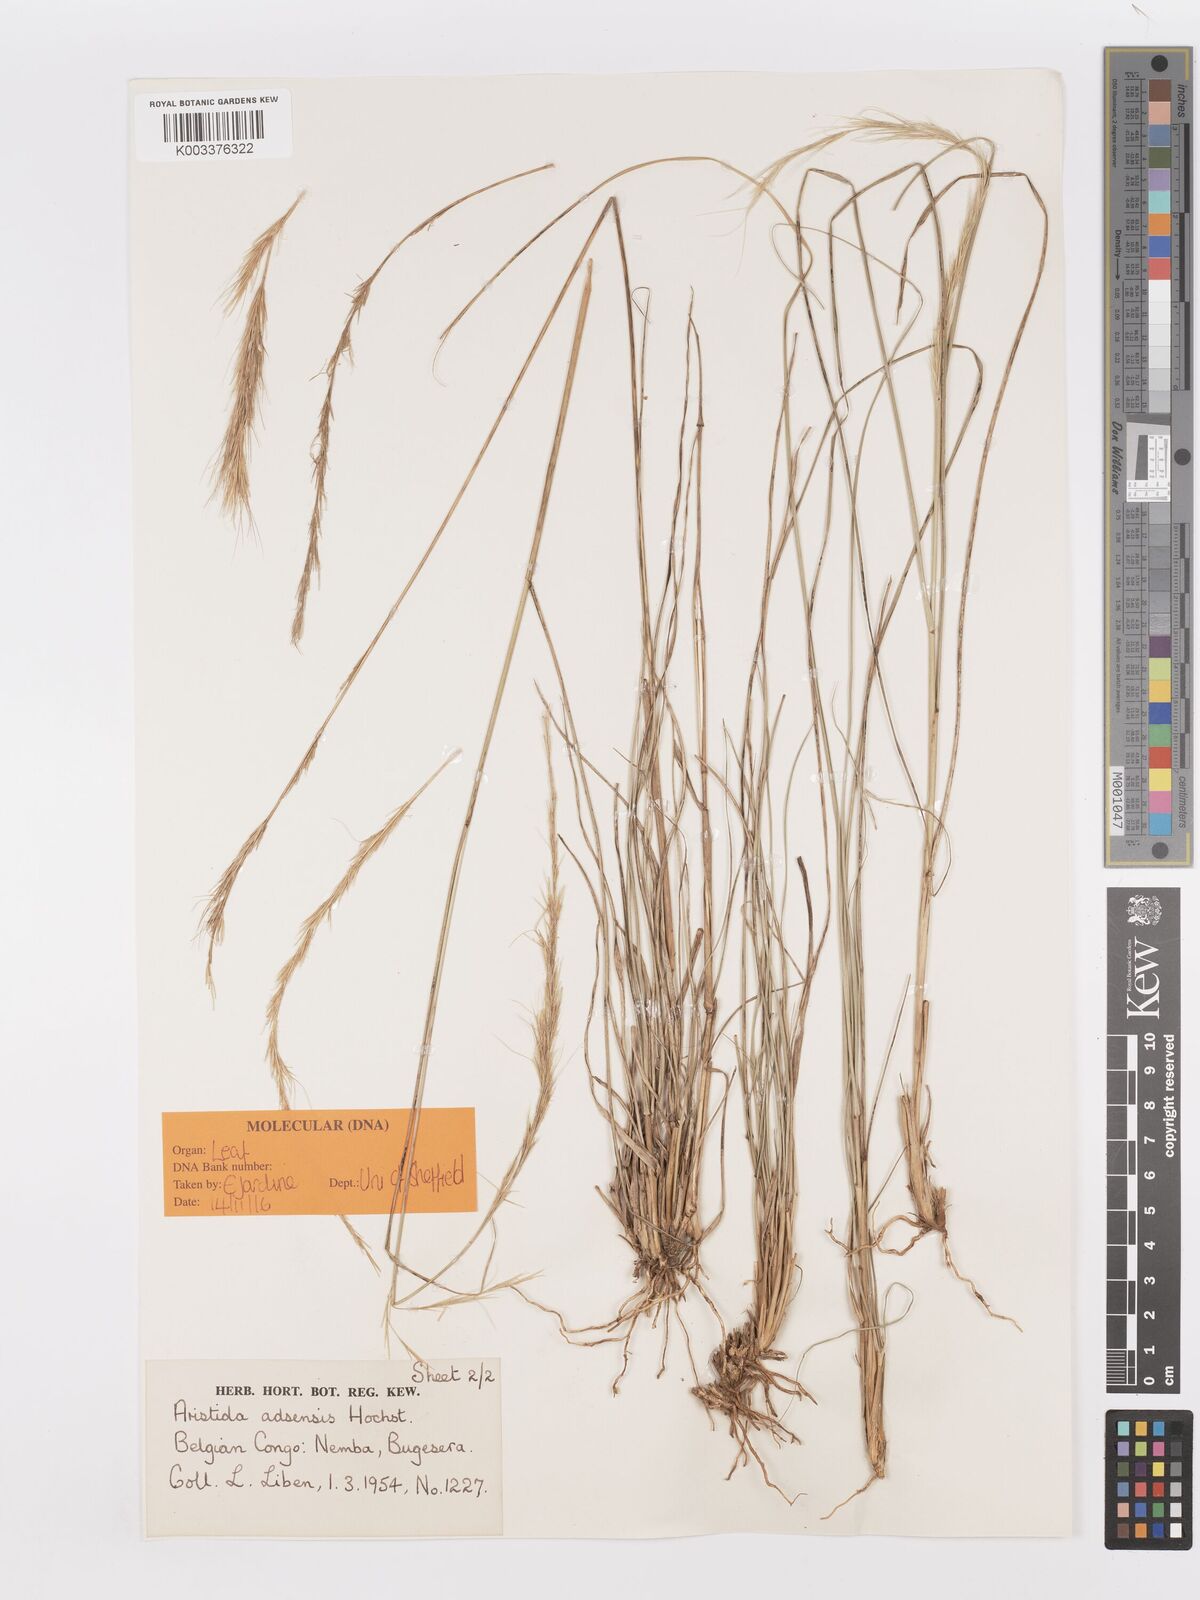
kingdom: Plantae
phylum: Tracheophyta
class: Liliopsida
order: Poales
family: Poaceae
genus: Aristida
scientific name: Aristida adoensis
